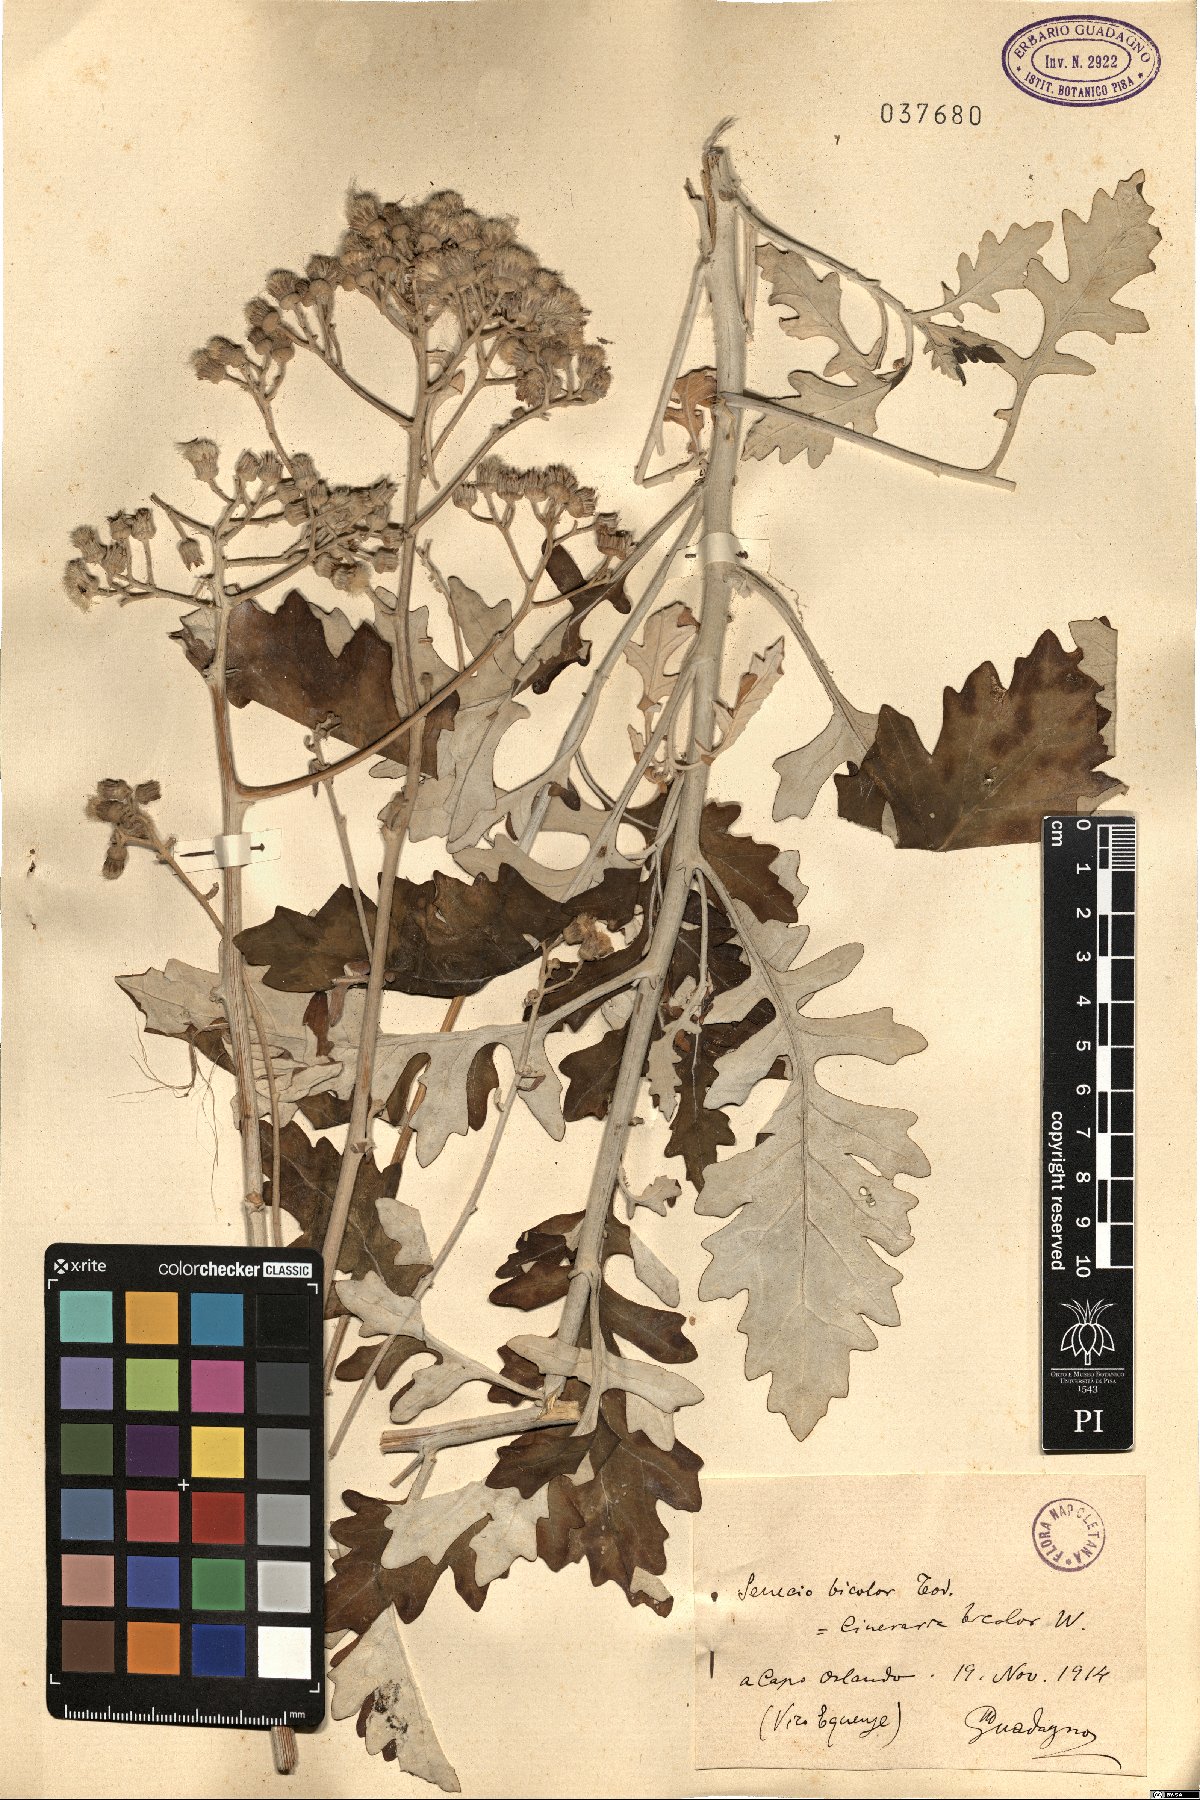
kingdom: Plantae
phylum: Tracheophyta
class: Magnoliopsida
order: Asterales
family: Asteraceae
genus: Jacobaea
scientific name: Jacobaea maritima
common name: Silver ragwort
